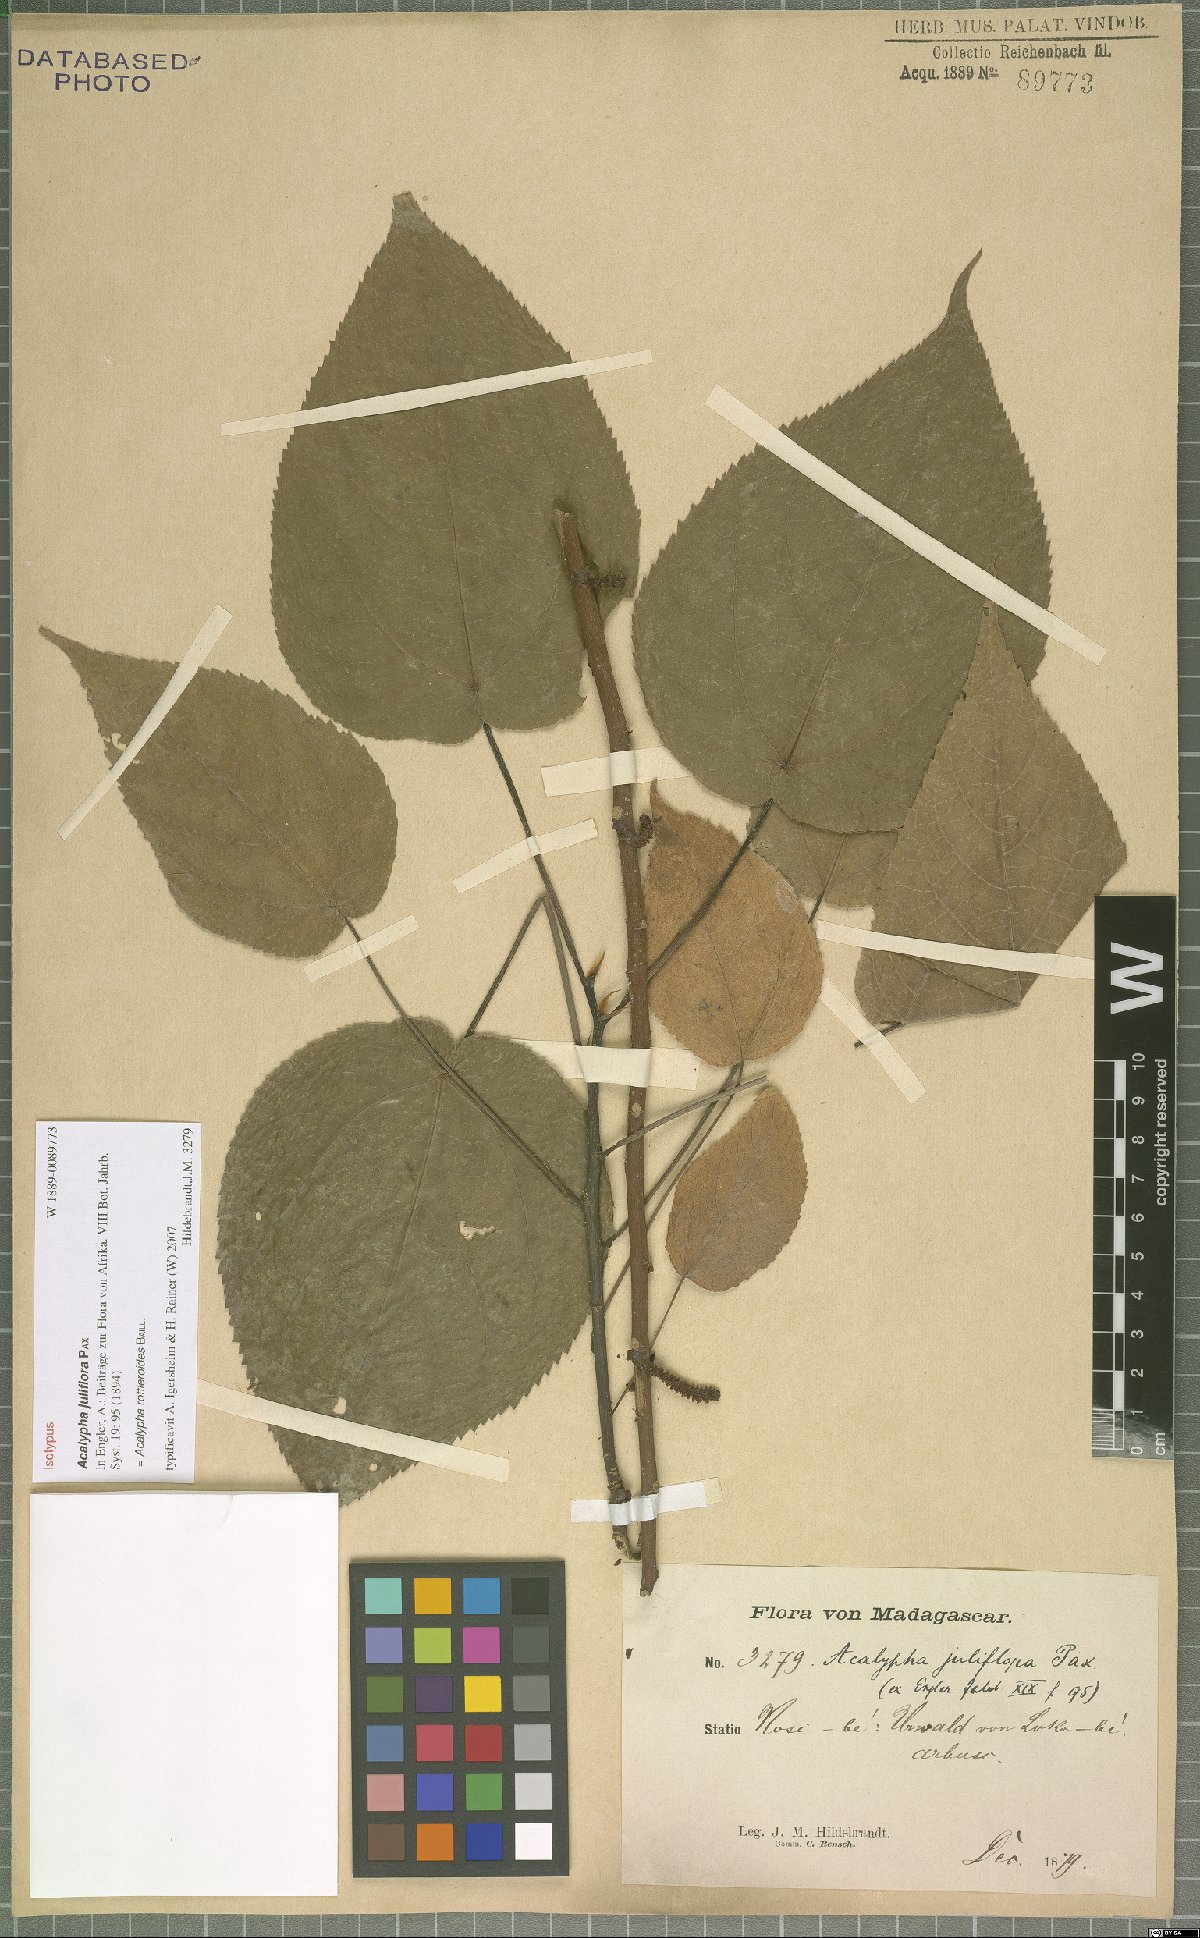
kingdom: Plantae
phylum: Tracheophyta
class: Magnoliopsida
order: Malpighiales
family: Euphorbiaceae
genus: Acalypha
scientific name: Acalypha rottleroides
